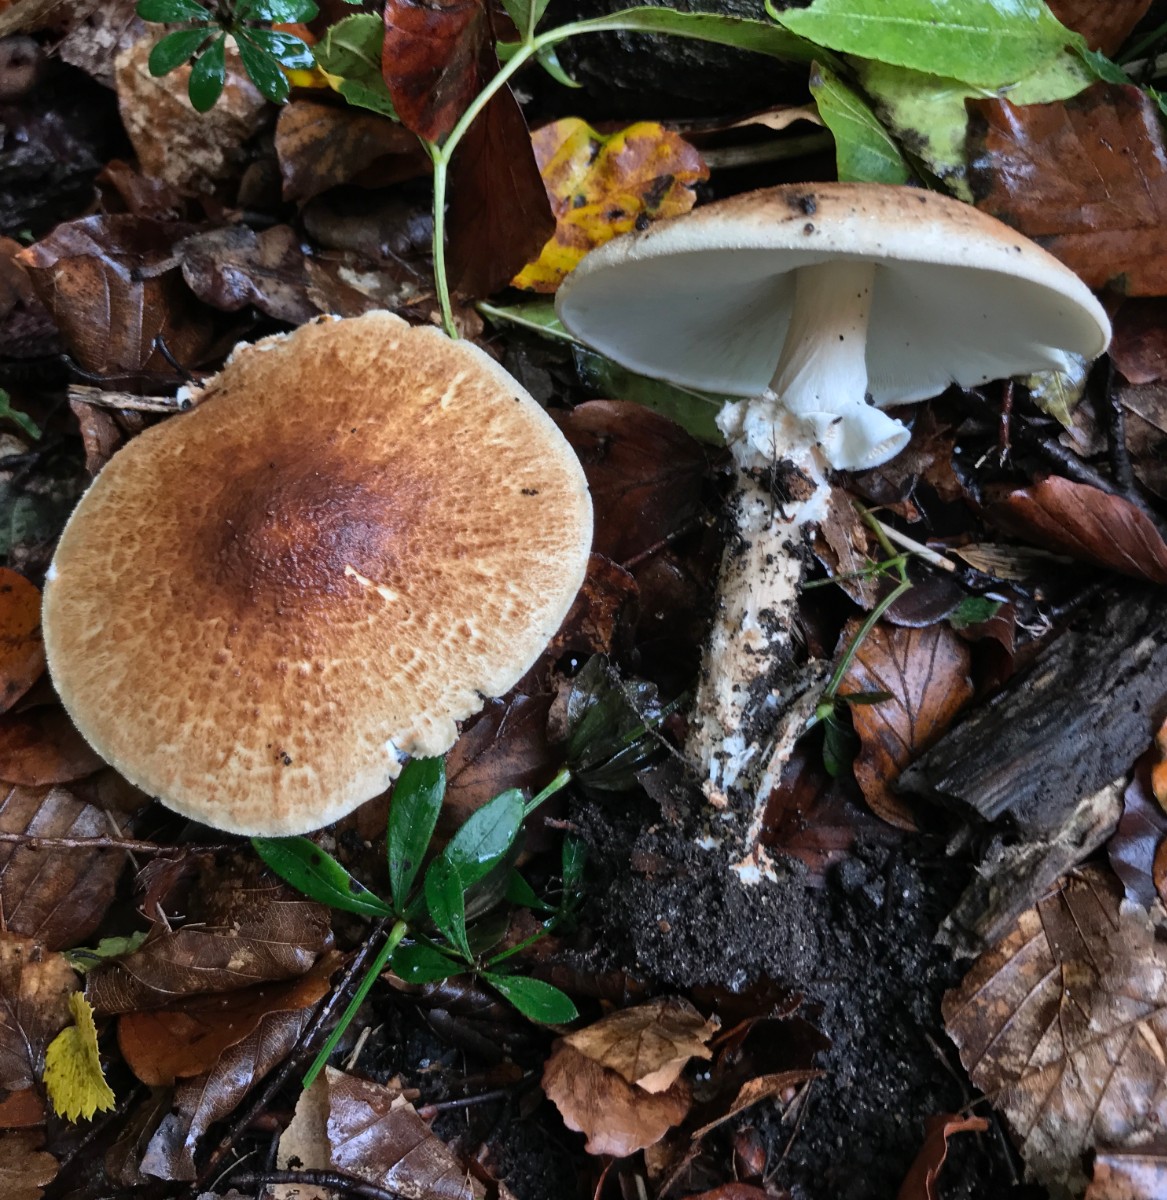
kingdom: Fungi
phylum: Basidiomycota
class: Agaricomycetes
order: Agaricales
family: Agaricaceae
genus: Echinoderma
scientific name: Echinoderma asperum
